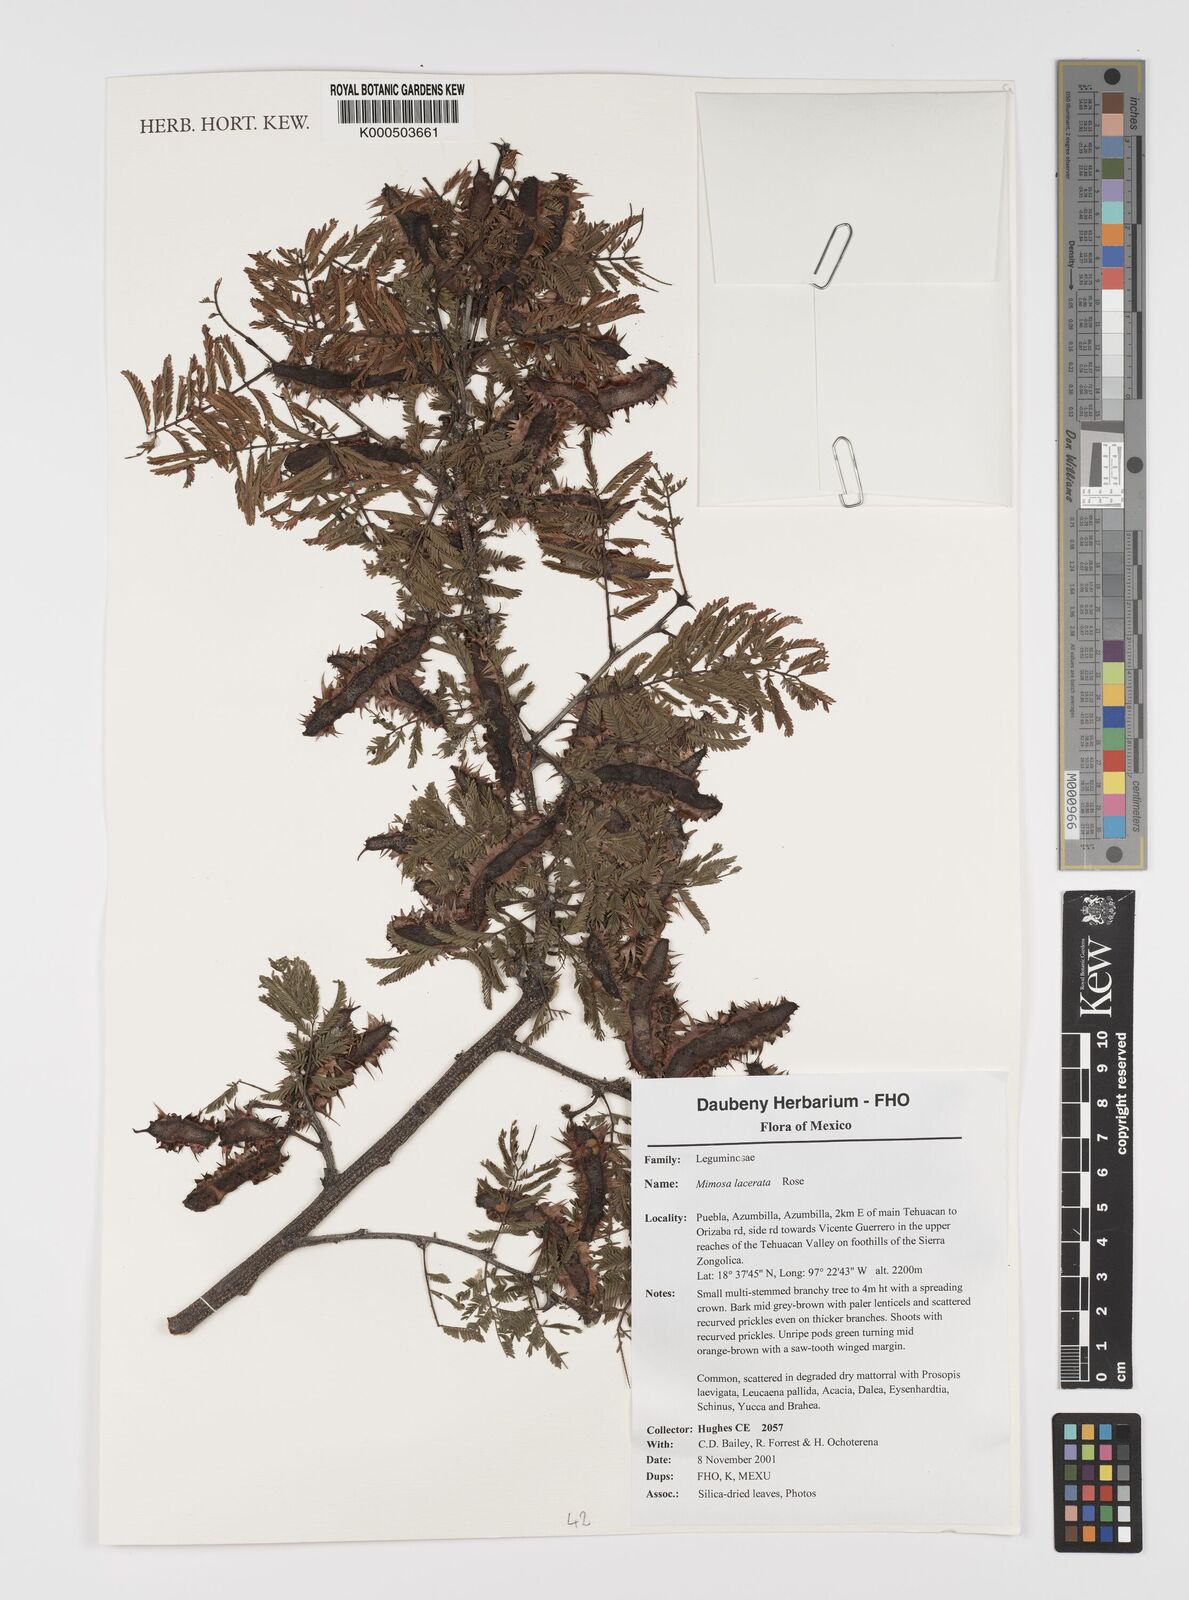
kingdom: Plantae
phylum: Tracheophyta
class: Magnoliopsida
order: Fabales
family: Fabaceae
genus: Mimosa
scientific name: Mimosa lacerata
